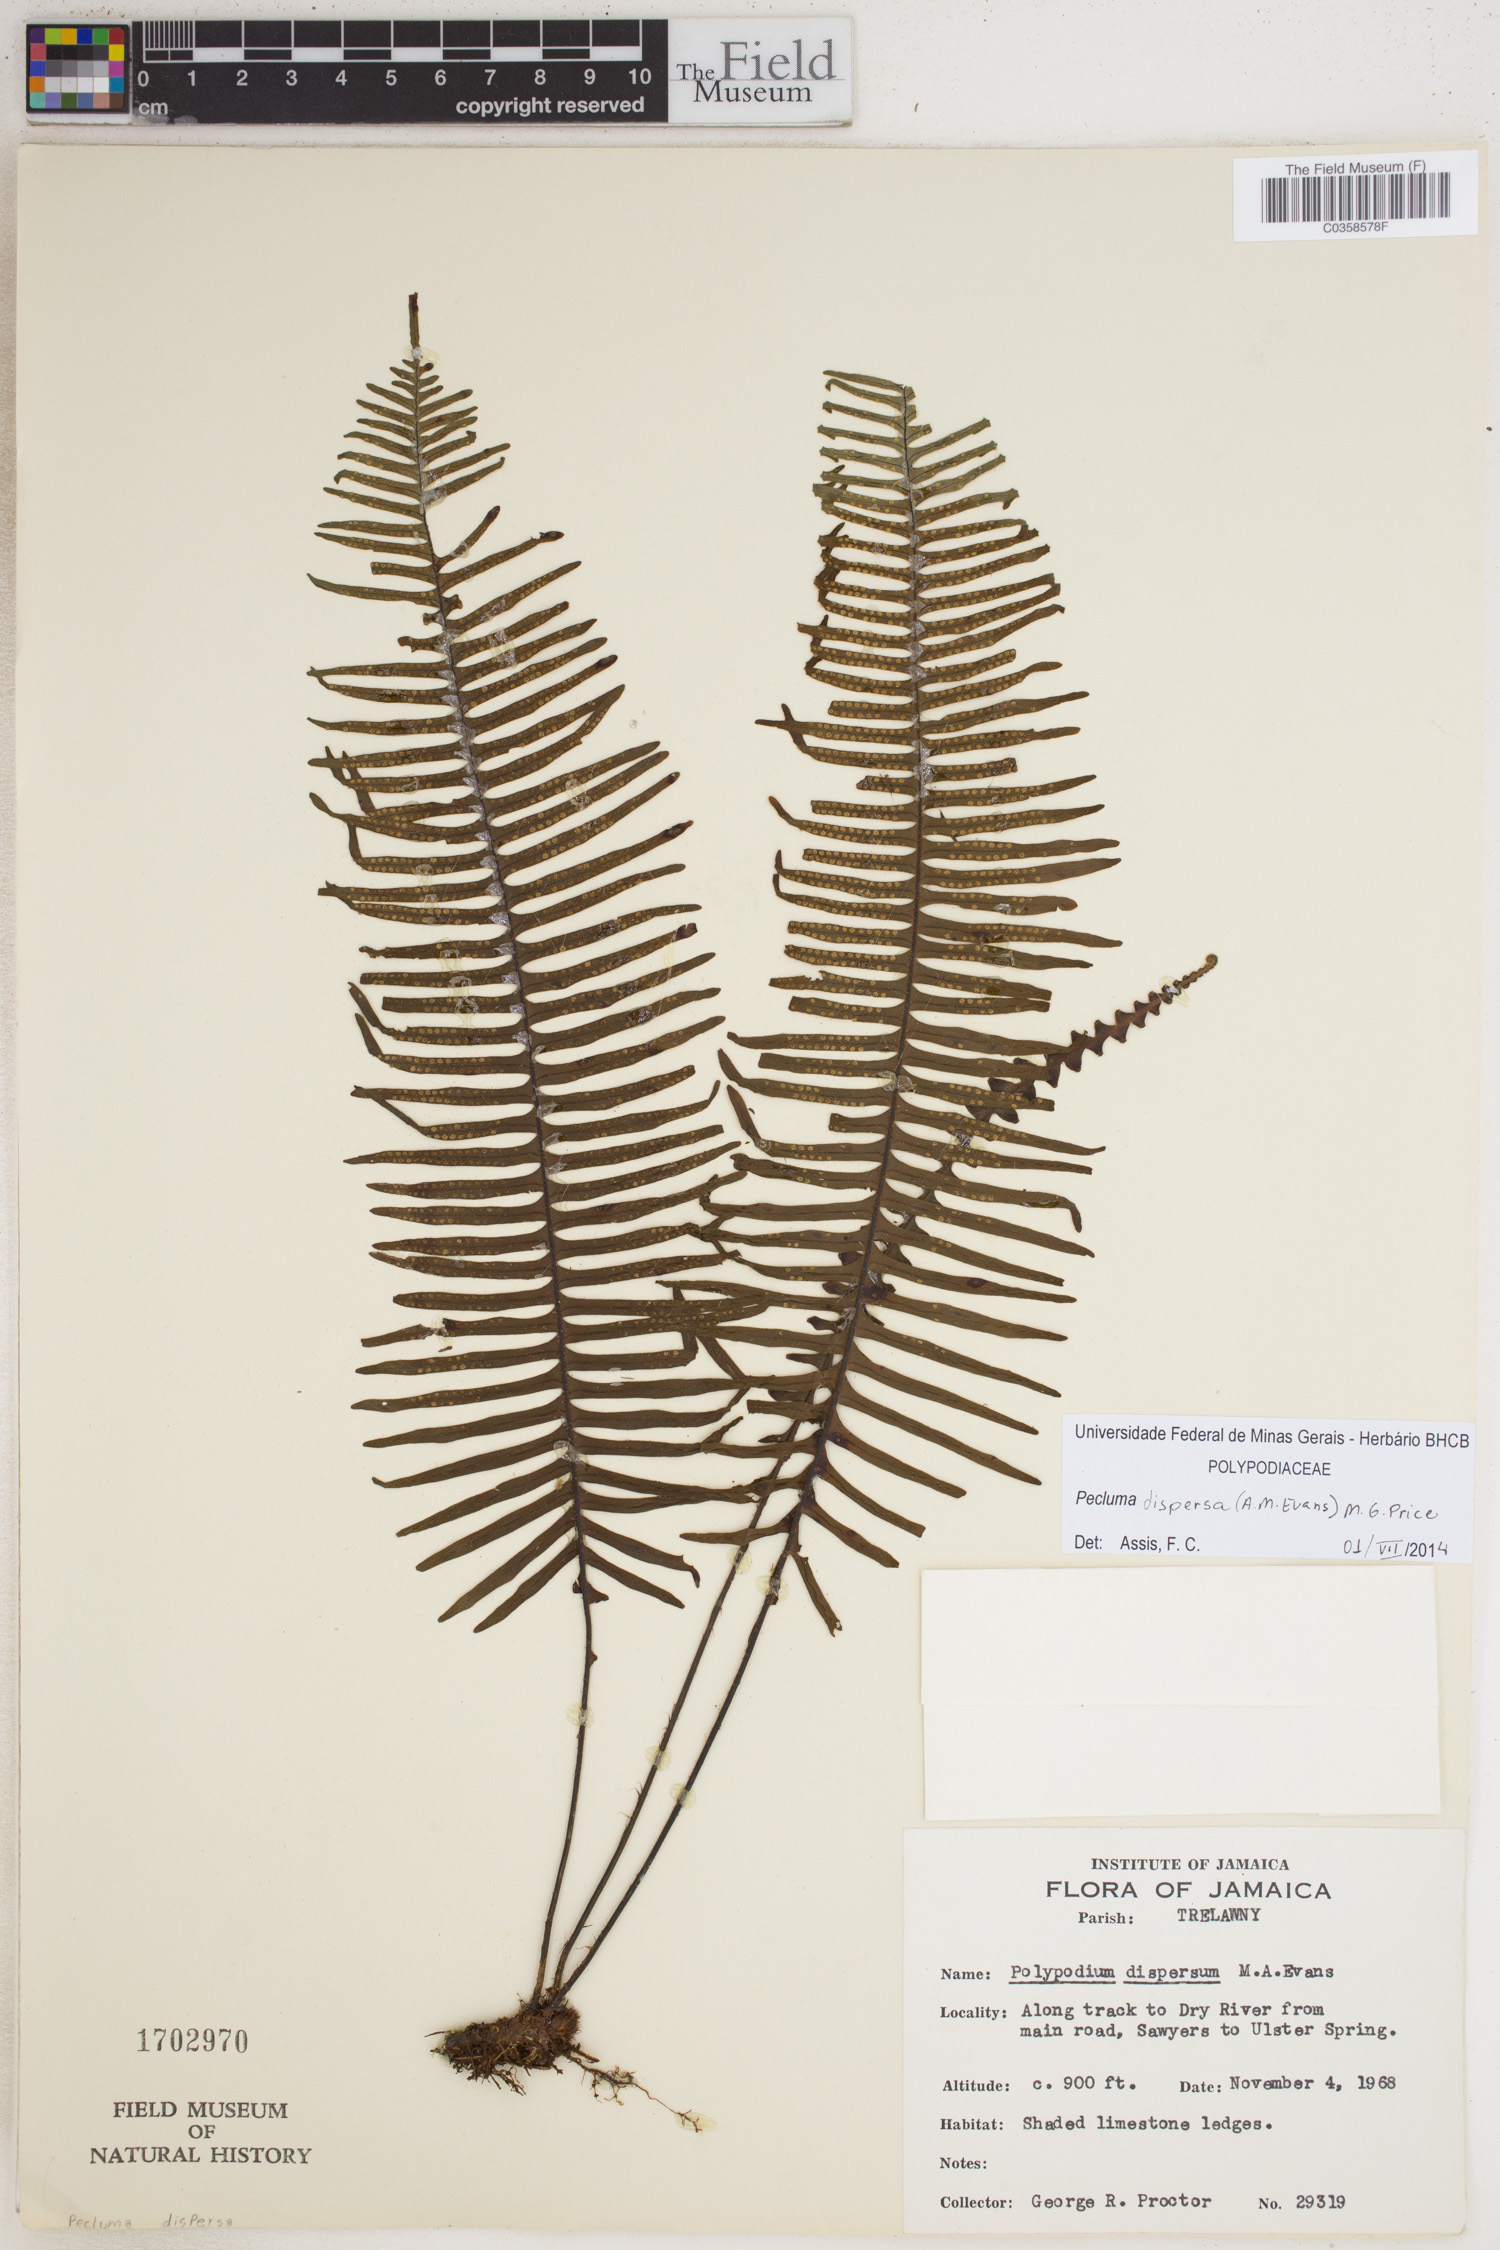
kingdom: Plantae
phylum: Tracheophyta
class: Polypodiopsida
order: Polypodiales
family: Polypodiaceae
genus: Pecluma
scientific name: Pecluma dispersa
